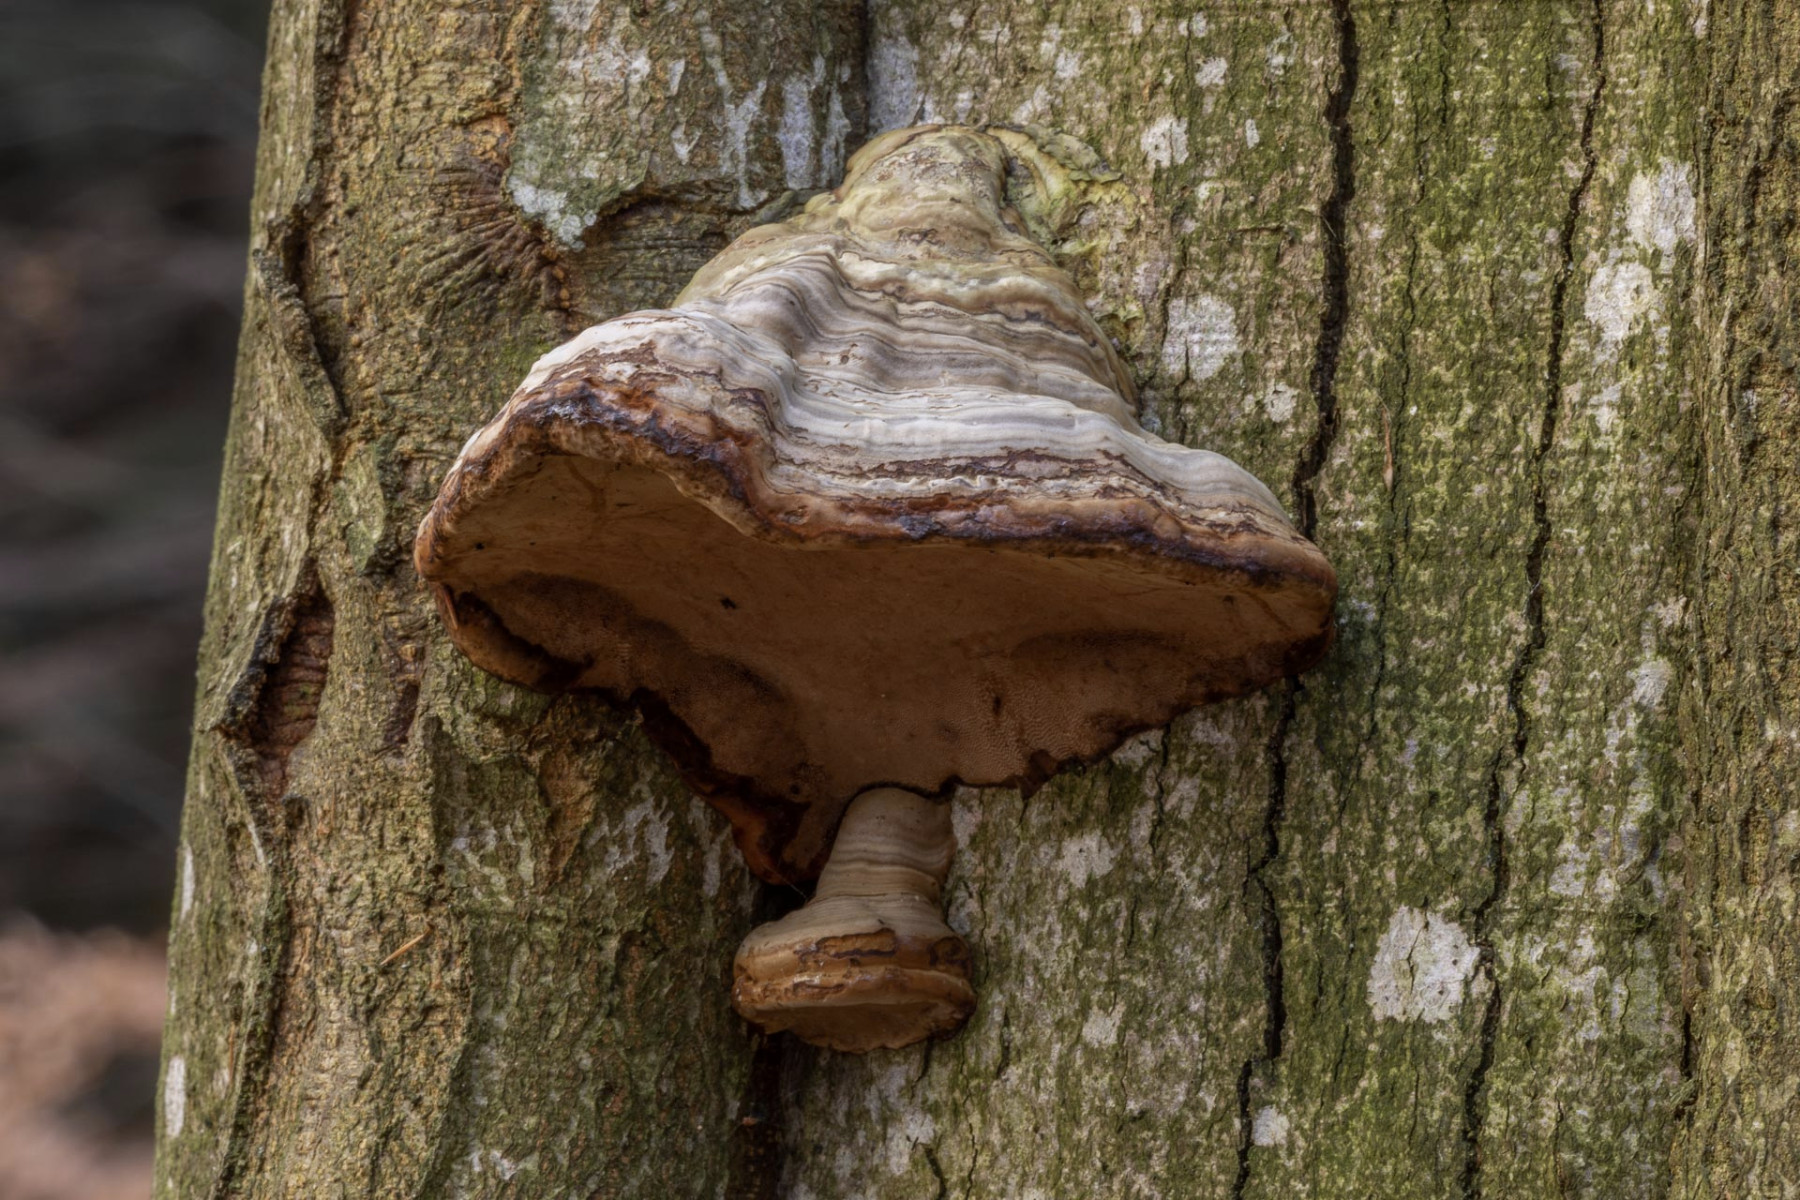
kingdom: Fungi
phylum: Basidiomycota
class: Agaricomycetes
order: Polyporales
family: Polyporaceae
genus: Fomes
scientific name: Fomes fomentarius
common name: tøndersvamp
